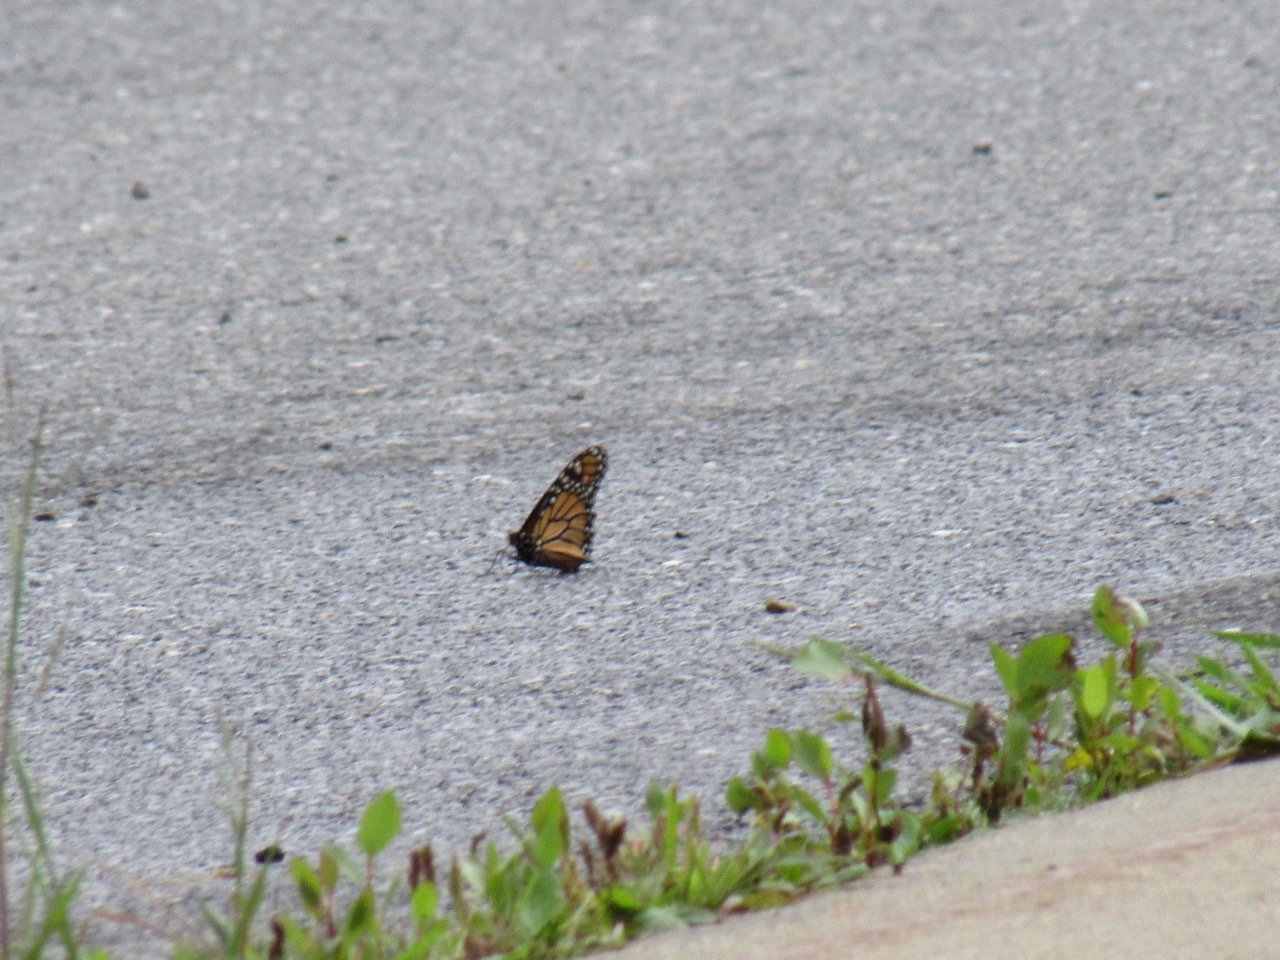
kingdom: Animalia
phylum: Arthropoda
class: Insecta
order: Lepidoptera
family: Nymphalidae
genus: Danaus
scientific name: Danaus plexippus
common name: Monarch
